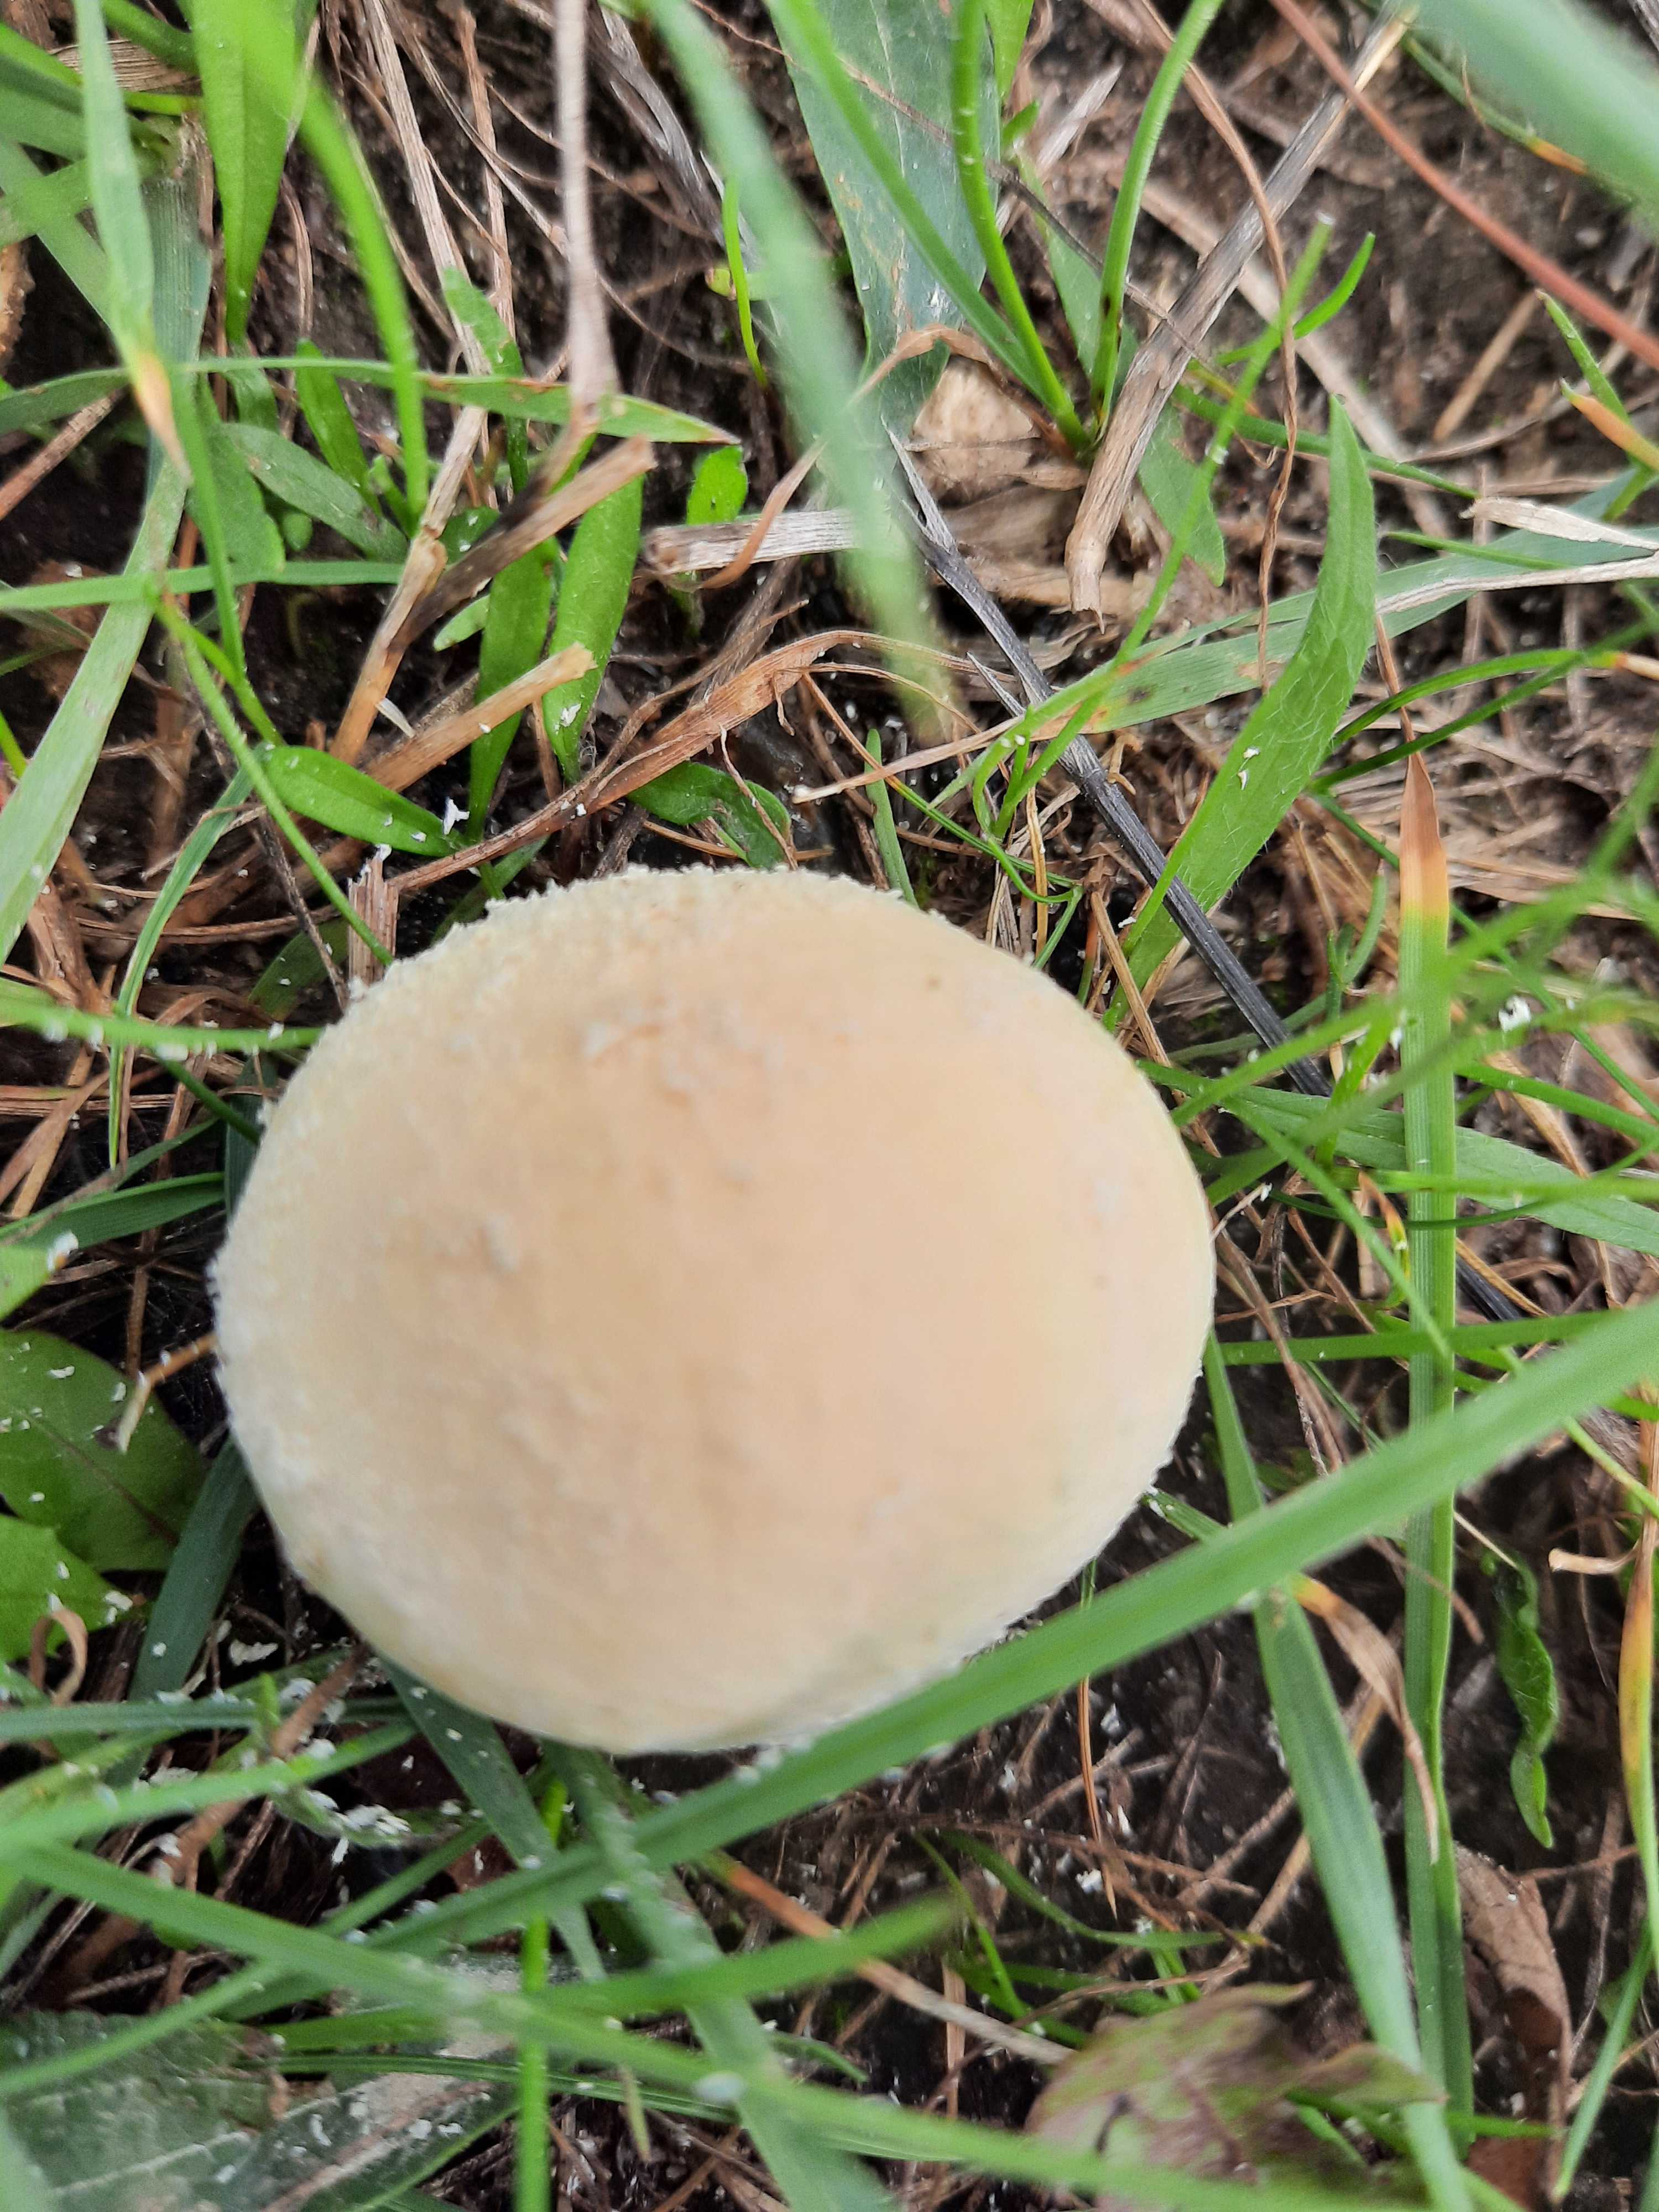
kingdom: Fungi
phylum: Basidiomycota
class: Agaricomycetes
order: Agaricales
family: Lycoperdaceae
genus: Lycoperdon
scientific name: Lycoperdon pratense
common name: flad støvbold
